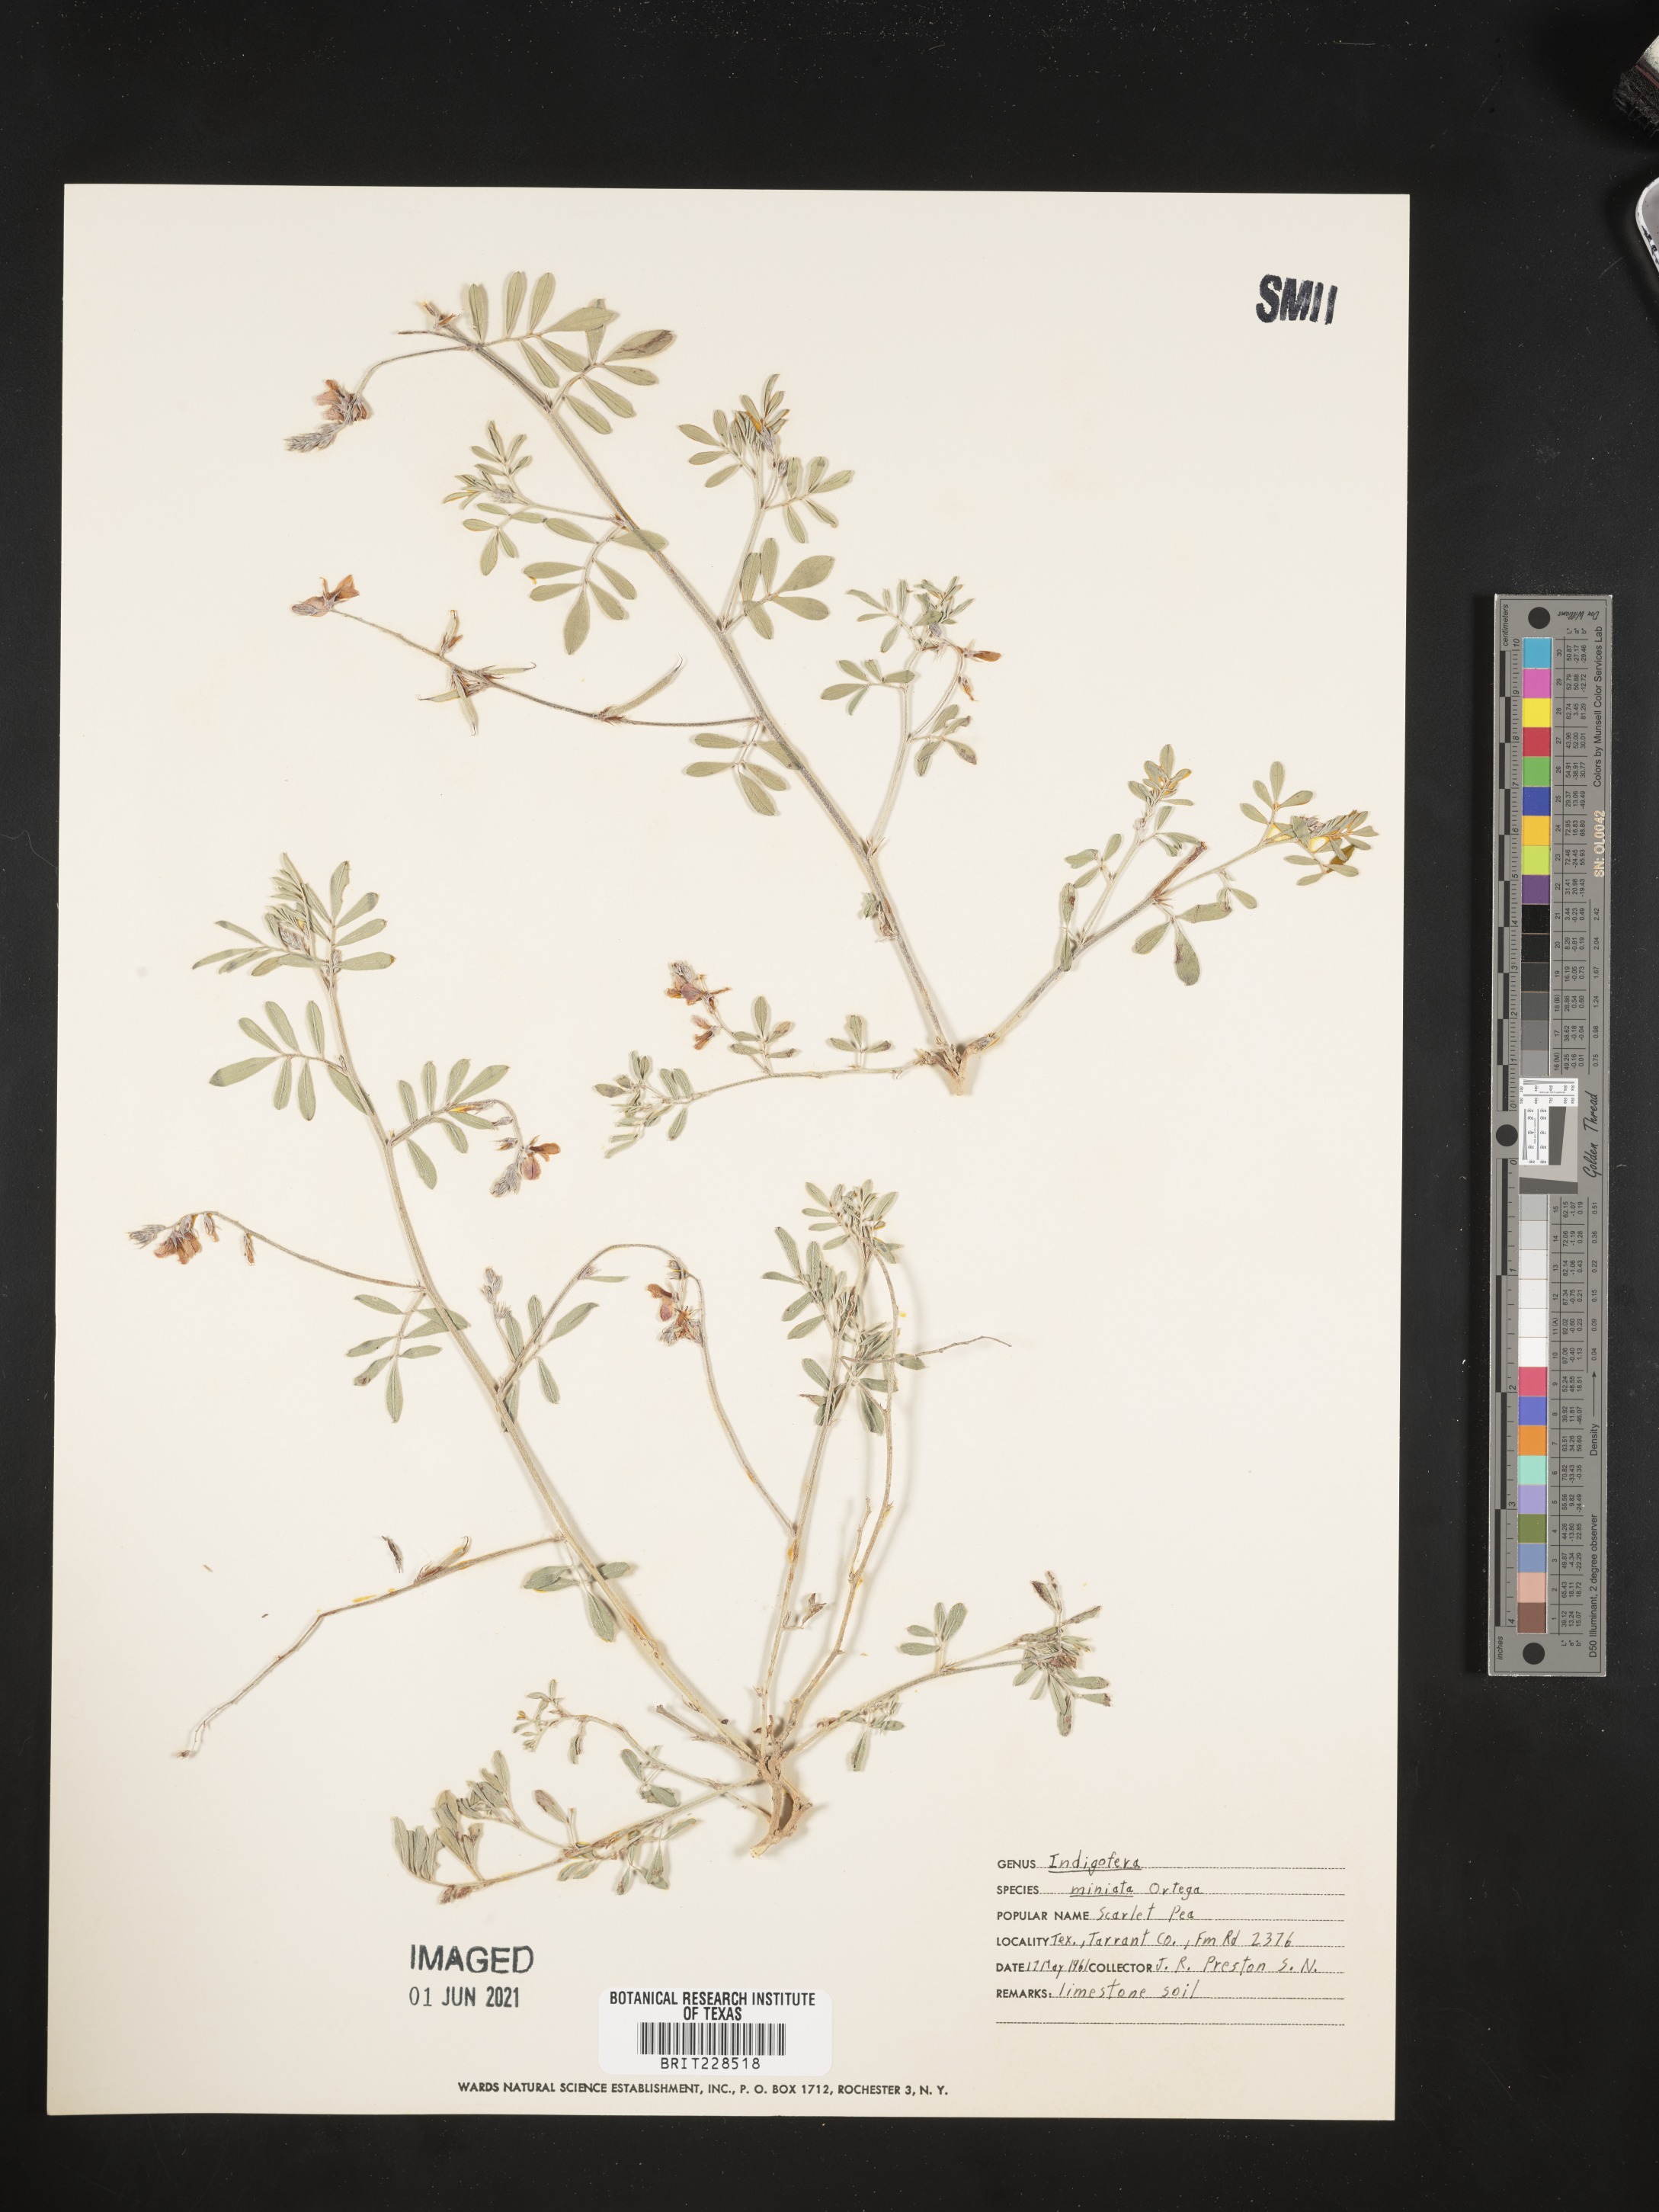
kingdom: Plantae
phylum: Tracheophyta
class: Magnoliopsida
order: Fabales
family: Fabaceae
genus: Indigofera
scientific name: Indigofera miniata
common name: Coast indigo
